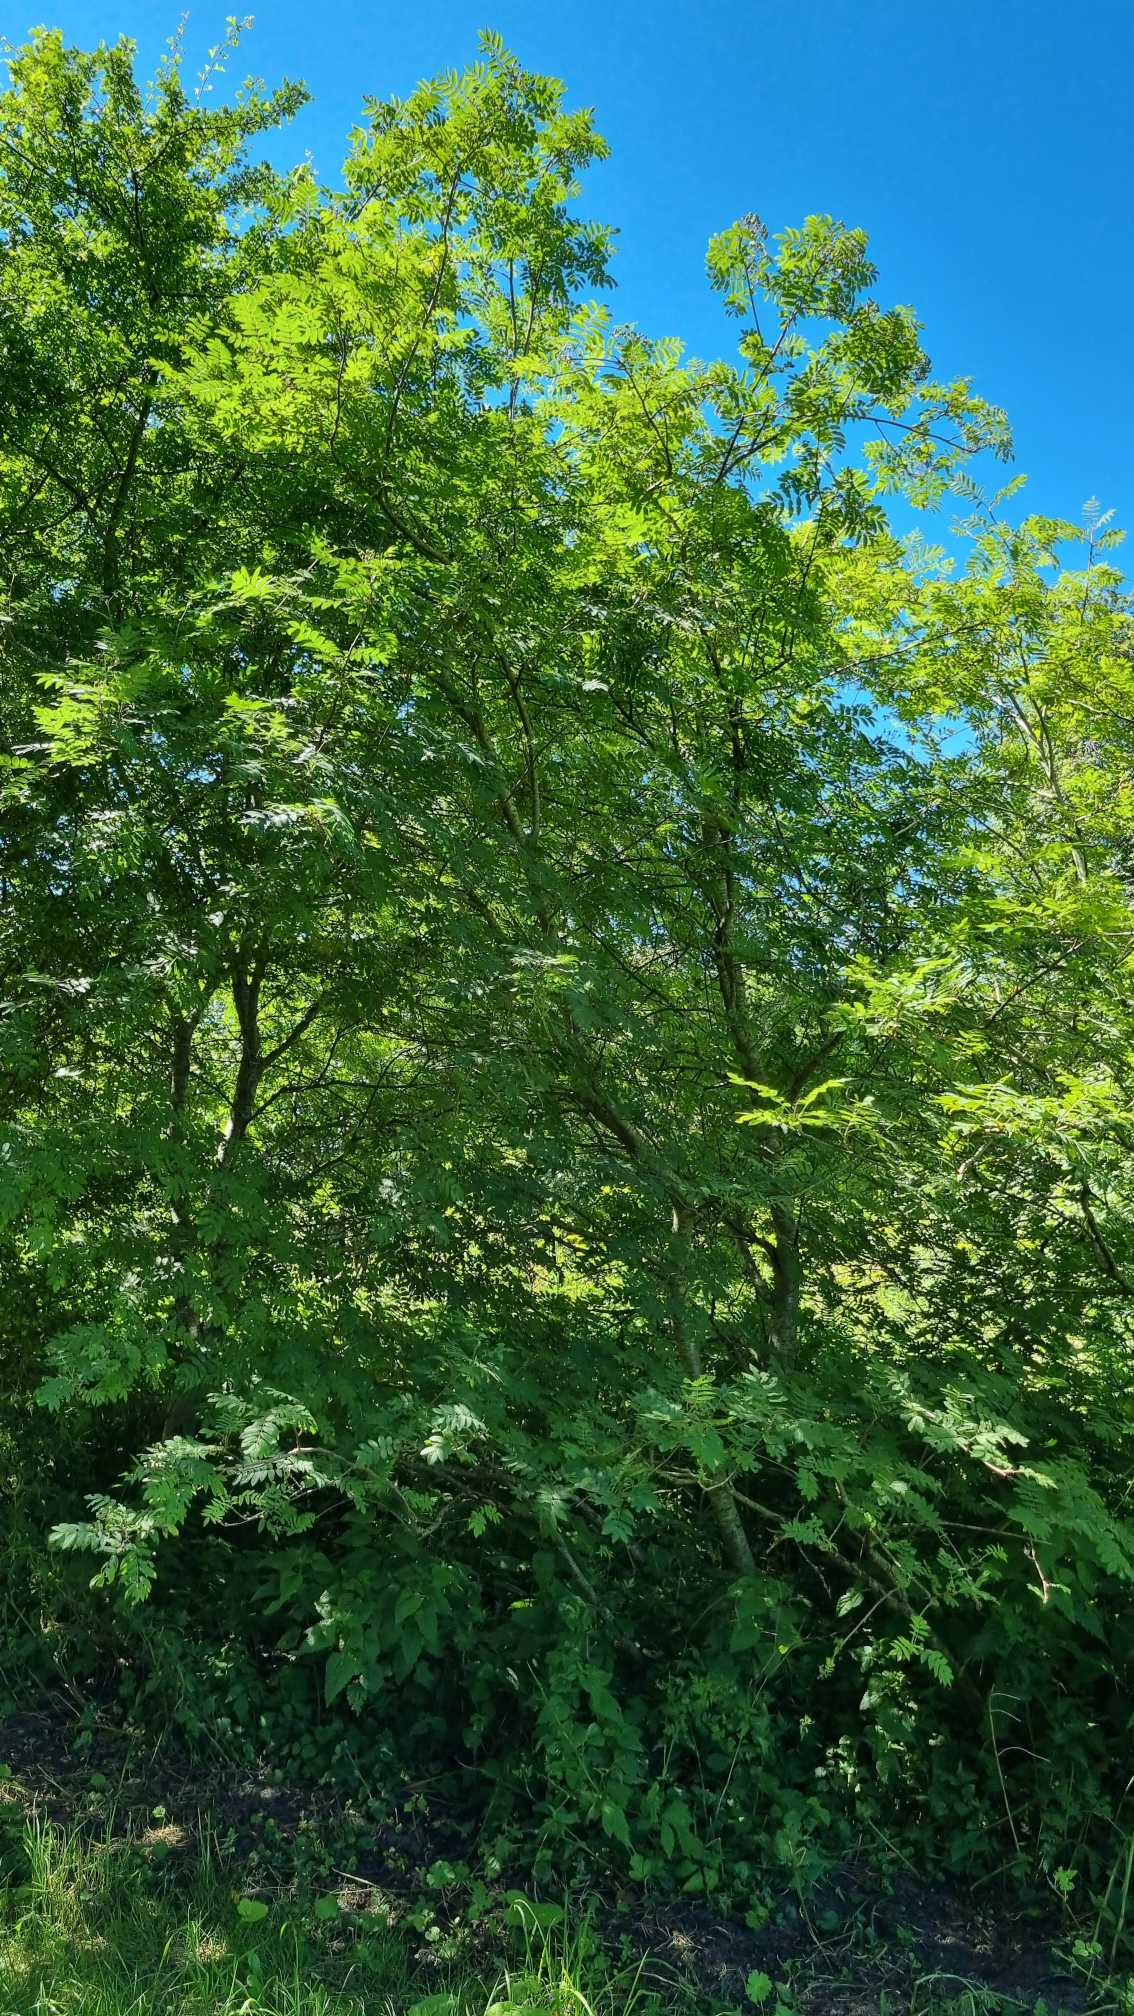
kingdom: Plantae
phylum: Tracheophyta
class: Magnoliopsida
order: Rosales
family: Rosaceae
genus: Sorbus
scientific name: Sorbus aucuparia
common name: Almindelig røn
